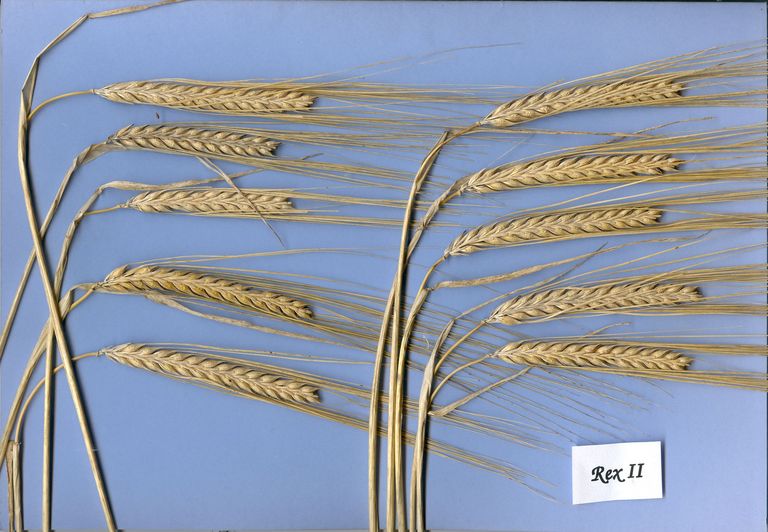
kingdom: Plantae
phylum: Tracheophyta
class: Liliopsida
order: Poales
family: Poaceae
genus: Hordeum
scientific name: Hordeum vulgare
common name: Common barley
